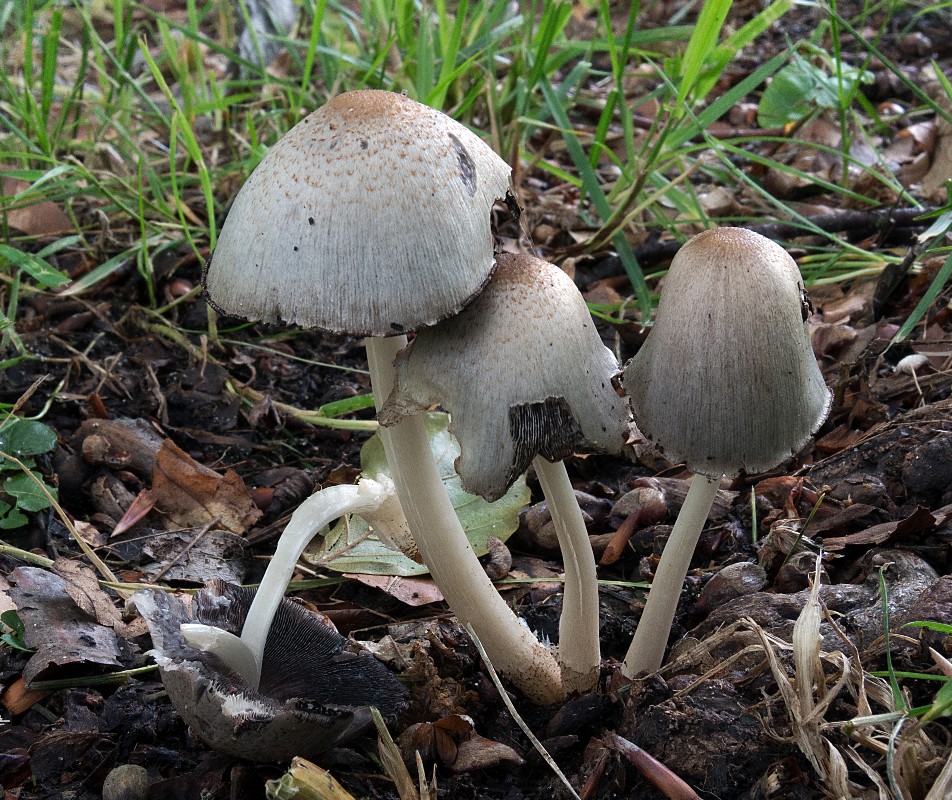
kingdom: Fungi
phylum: Basidiomycota
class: Agaricomycetes
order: Agaricales
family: Psathyrellaceae
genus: Coprinopsis
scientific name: Coprinopsis romagnesiana
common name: brunskællet blækhat
